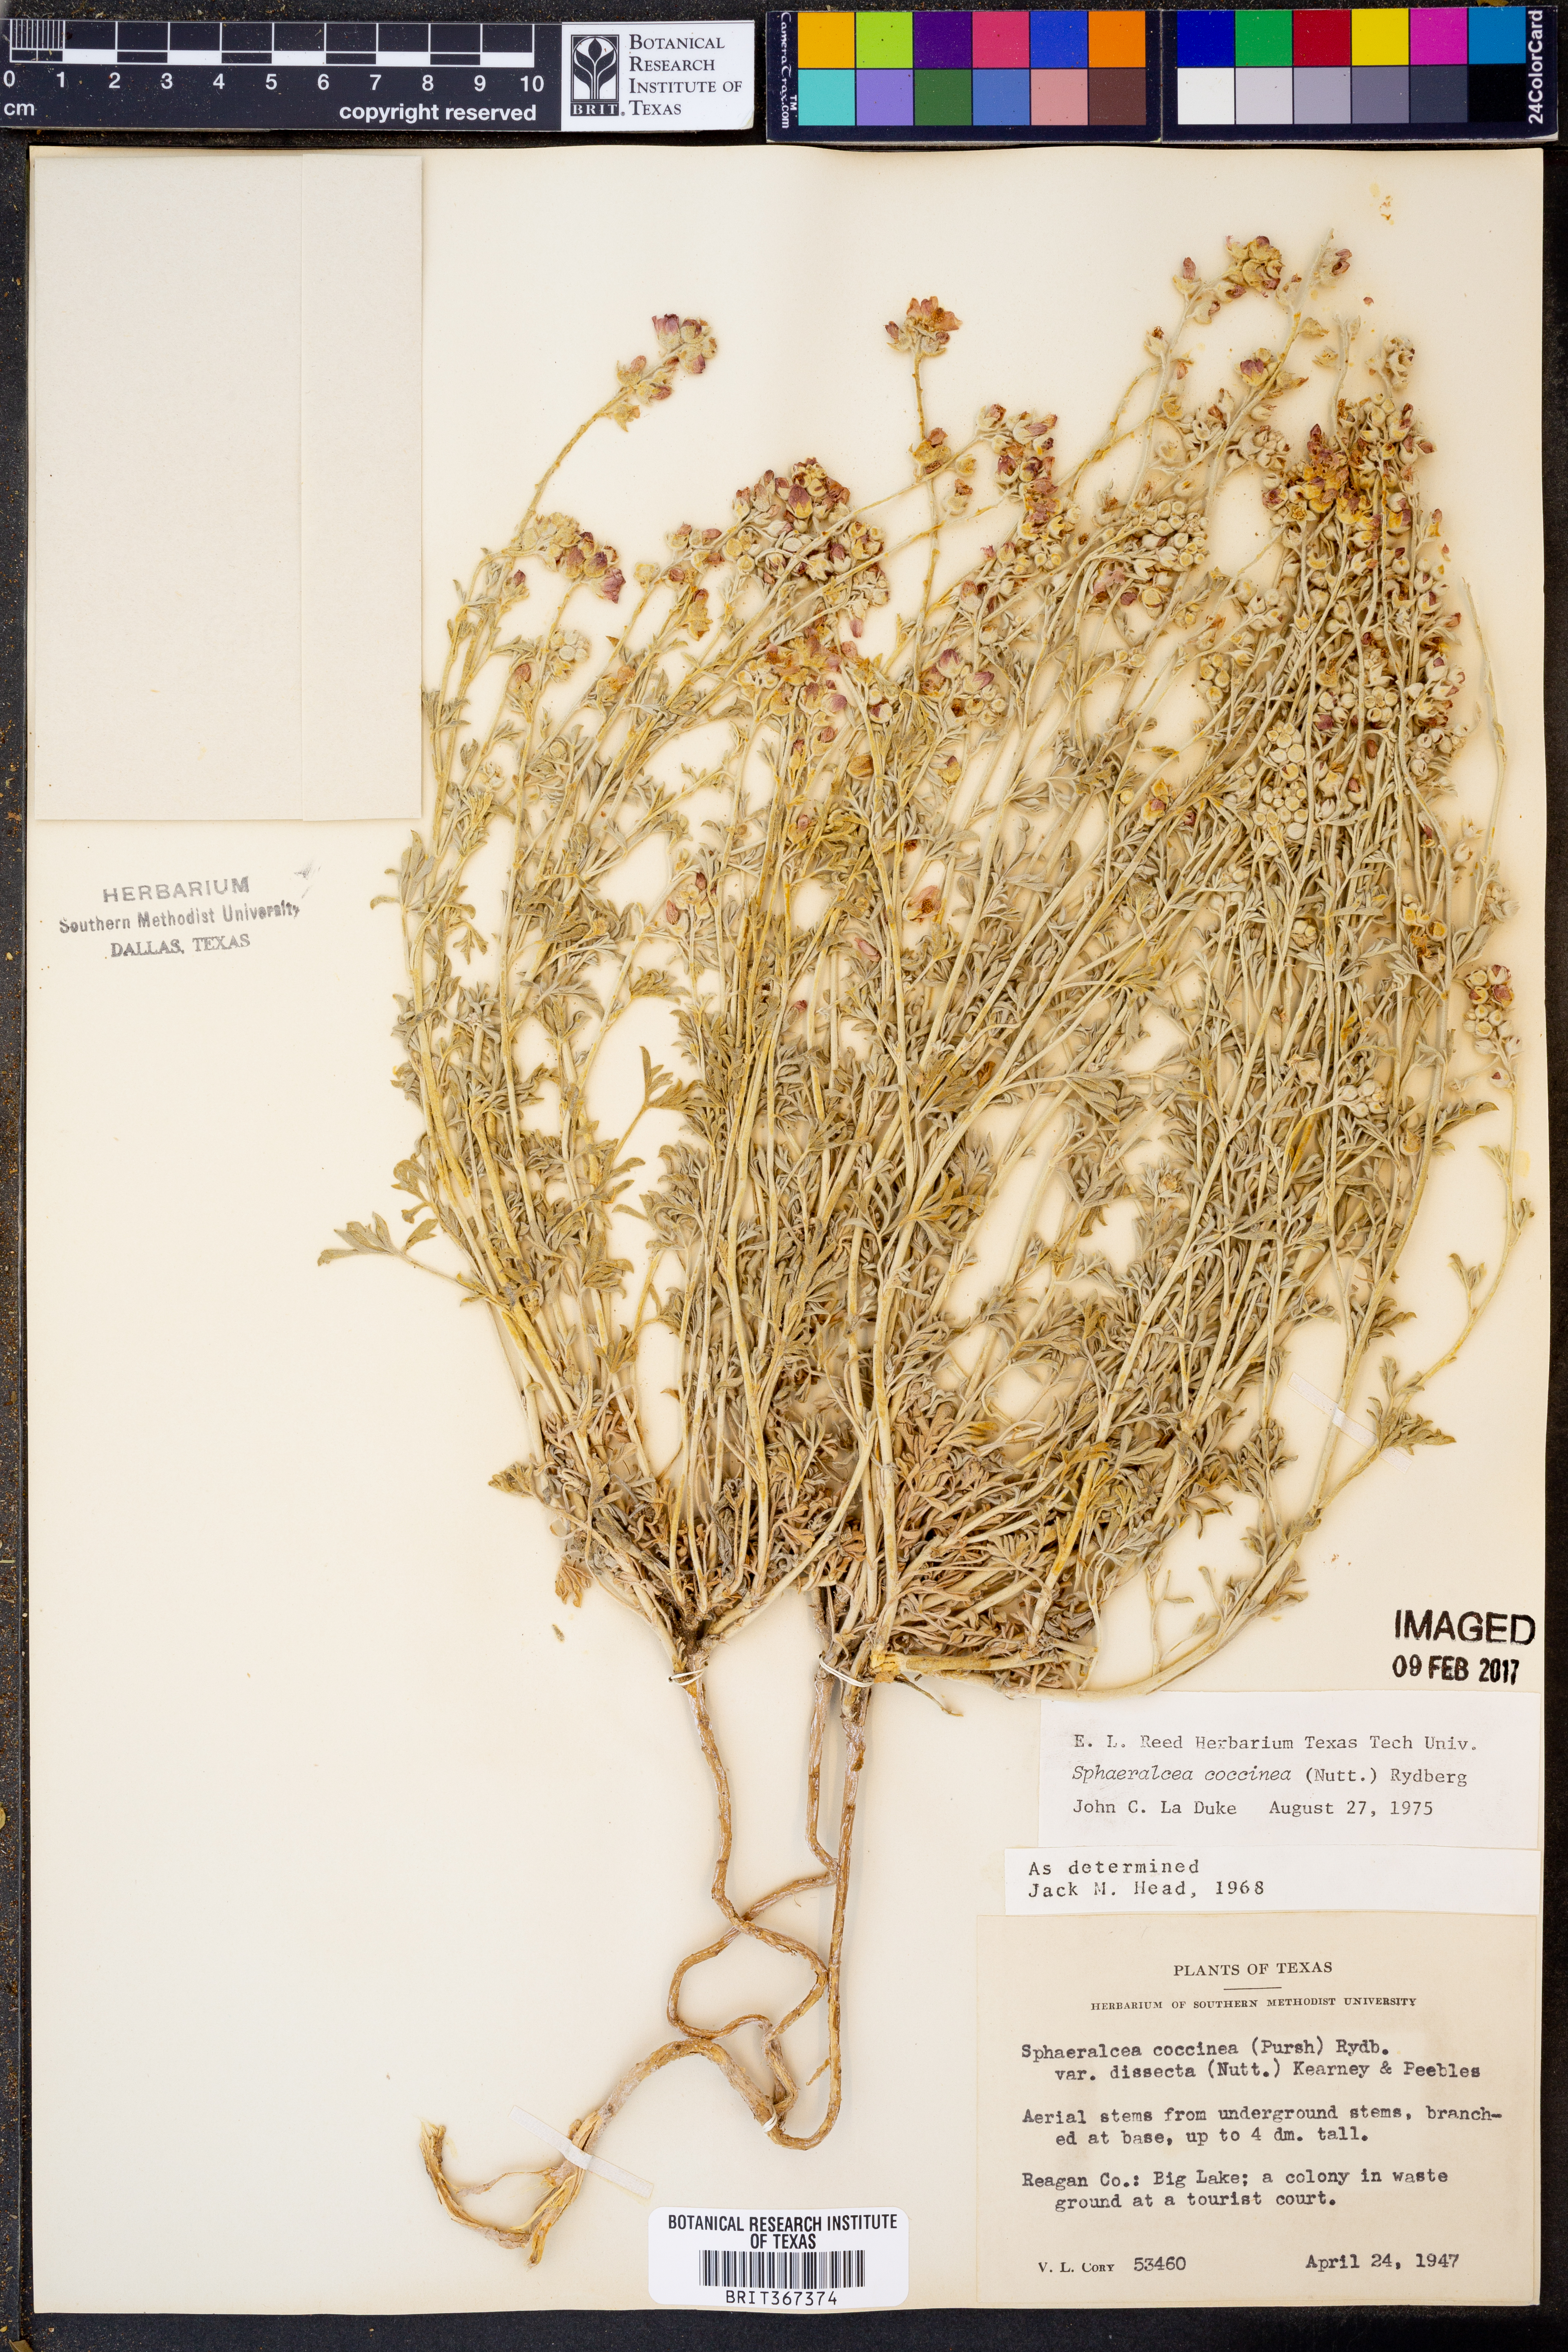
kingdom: Plantae
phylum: Tracheophyta
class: Magnoliopsida
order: Malvales
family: Malvaceae
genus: Sphaeralcea
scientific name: Sphaeralcea coccinea
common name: Moss-rose
